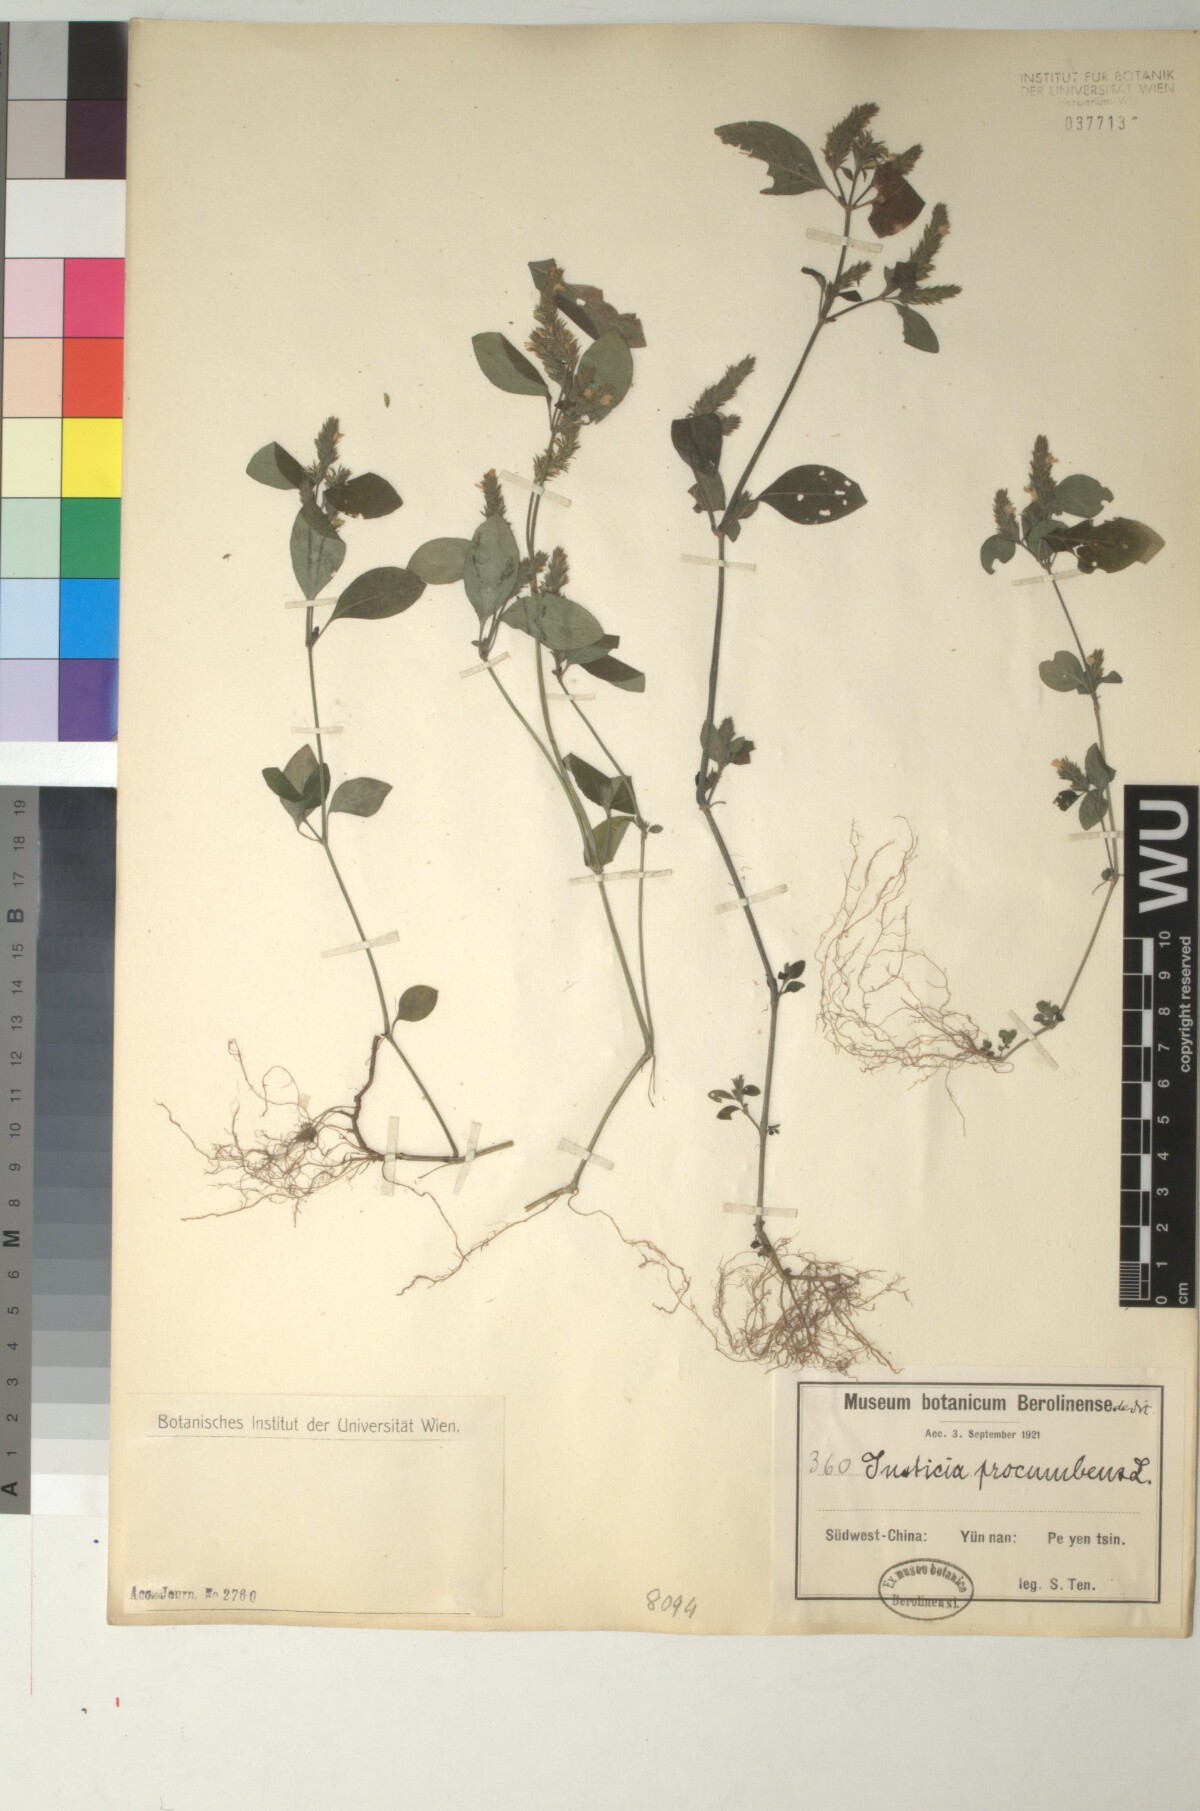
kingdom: Plantae
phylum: Tracheophyta
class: Magnoliopsida
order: Lamiales
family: Acanthaceae
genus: Rostellularia
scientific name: Rostellularia procumbens
